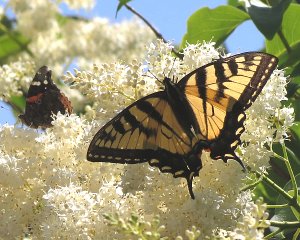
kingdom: Animalia
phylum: Arthropoda
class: Insecta
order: Lepidoptera
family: Papilionidae
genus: Pterourus
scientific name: Pterourus glaucus
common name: Eastern Tiger Swallowtail
